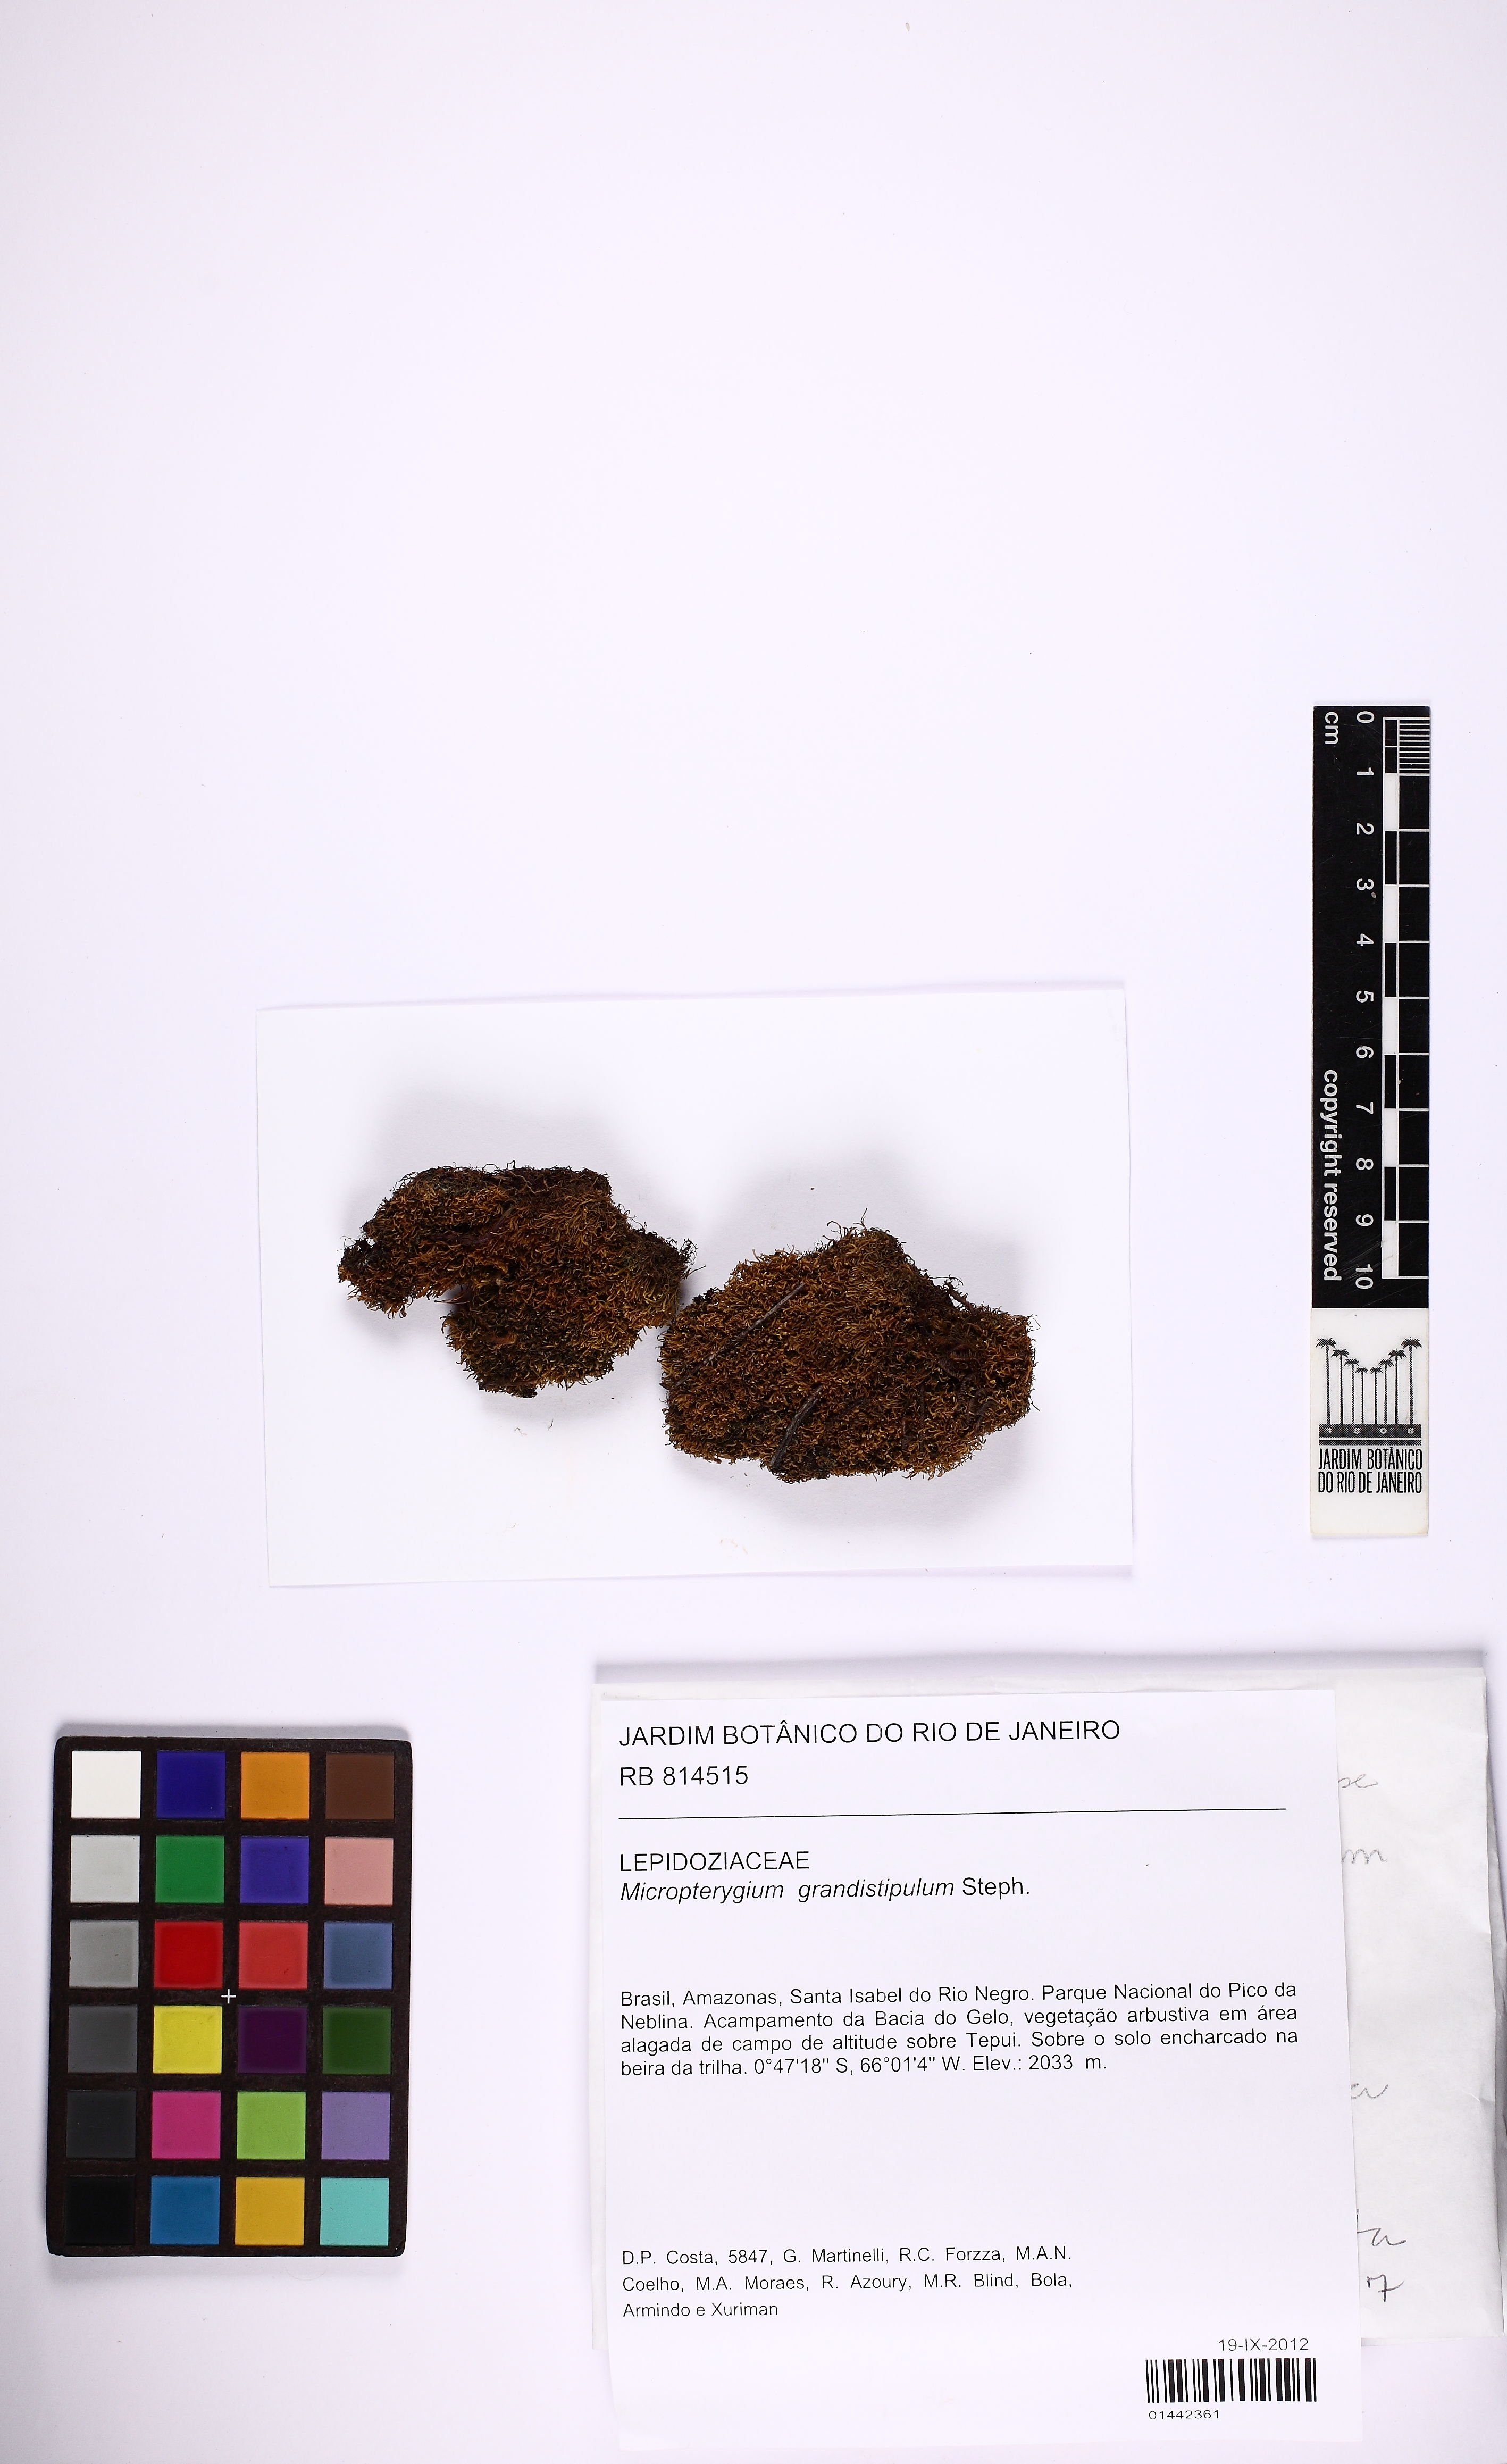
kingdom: Plantae
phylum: Marchantiophyta
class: Jungermanniopsida
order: Jungermanniales
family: Lepidoziaceae
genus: Micropterygium
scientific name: Micropterygium grandistipulum
